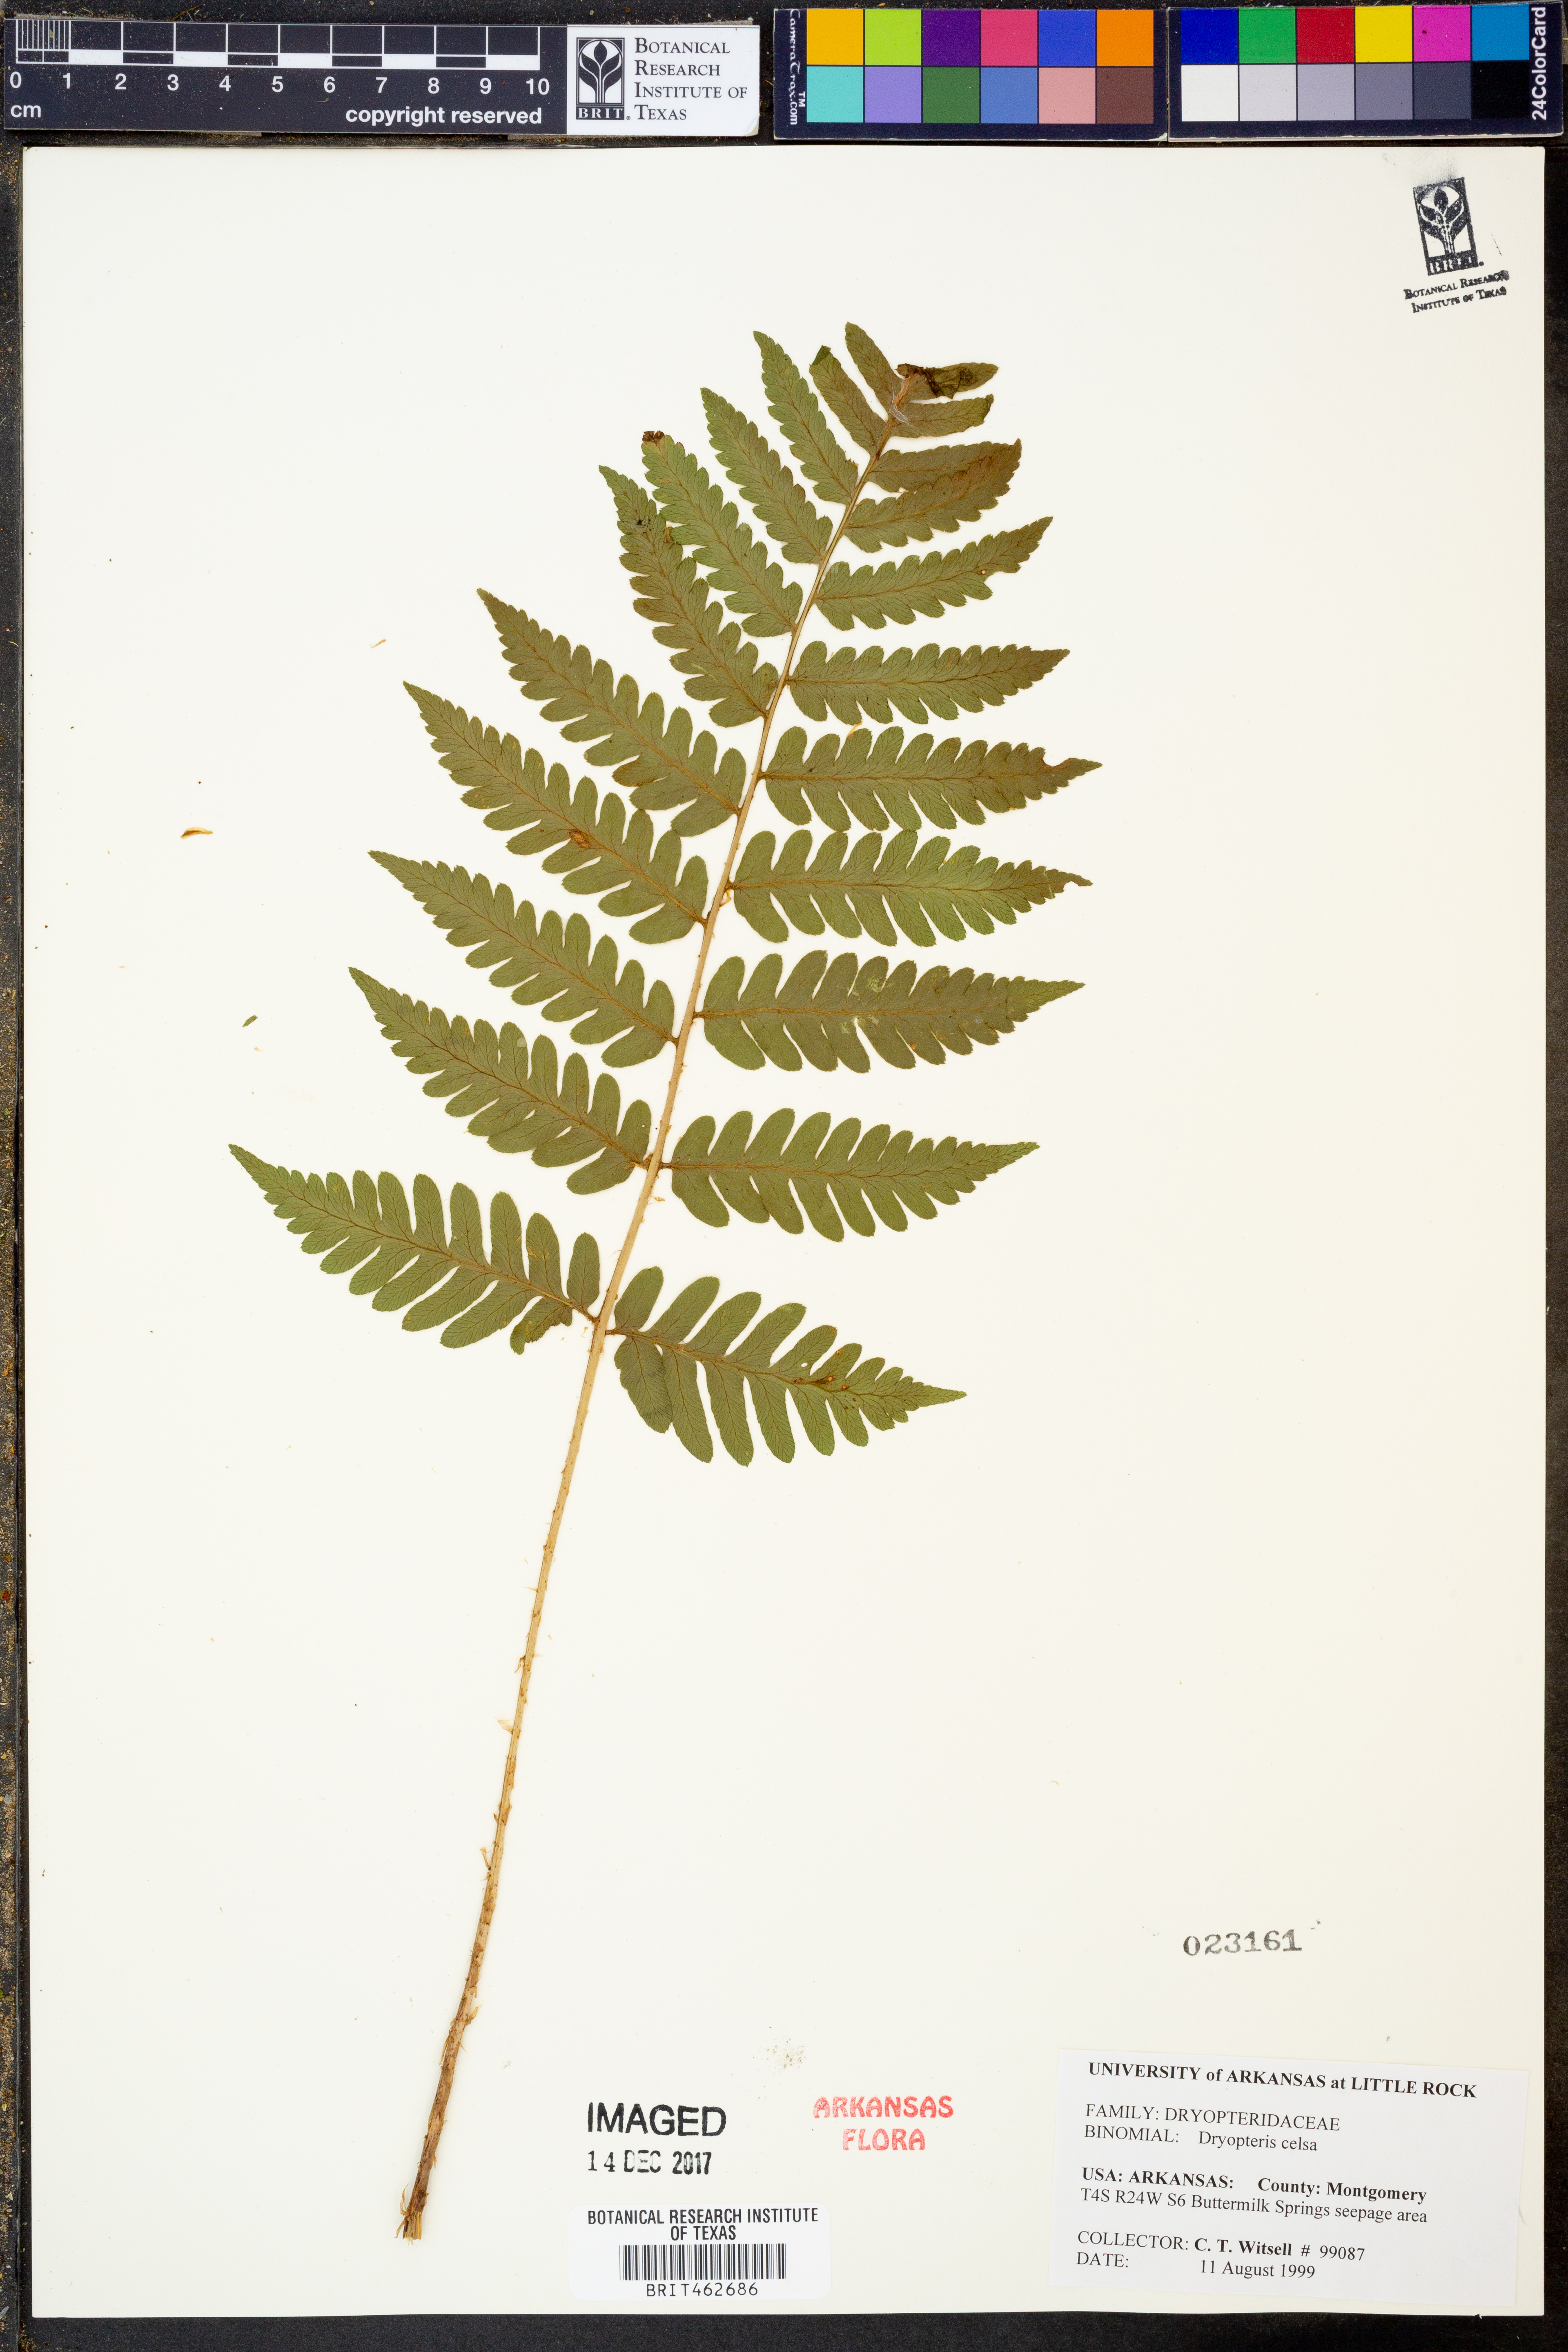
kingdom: Plantae
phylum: Tracheophyta
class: Polypodiopsida
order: Polypodiales
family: Dryopteridaceae
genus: Dryopteris
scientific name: Dryopteris celsa
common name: Log fern
